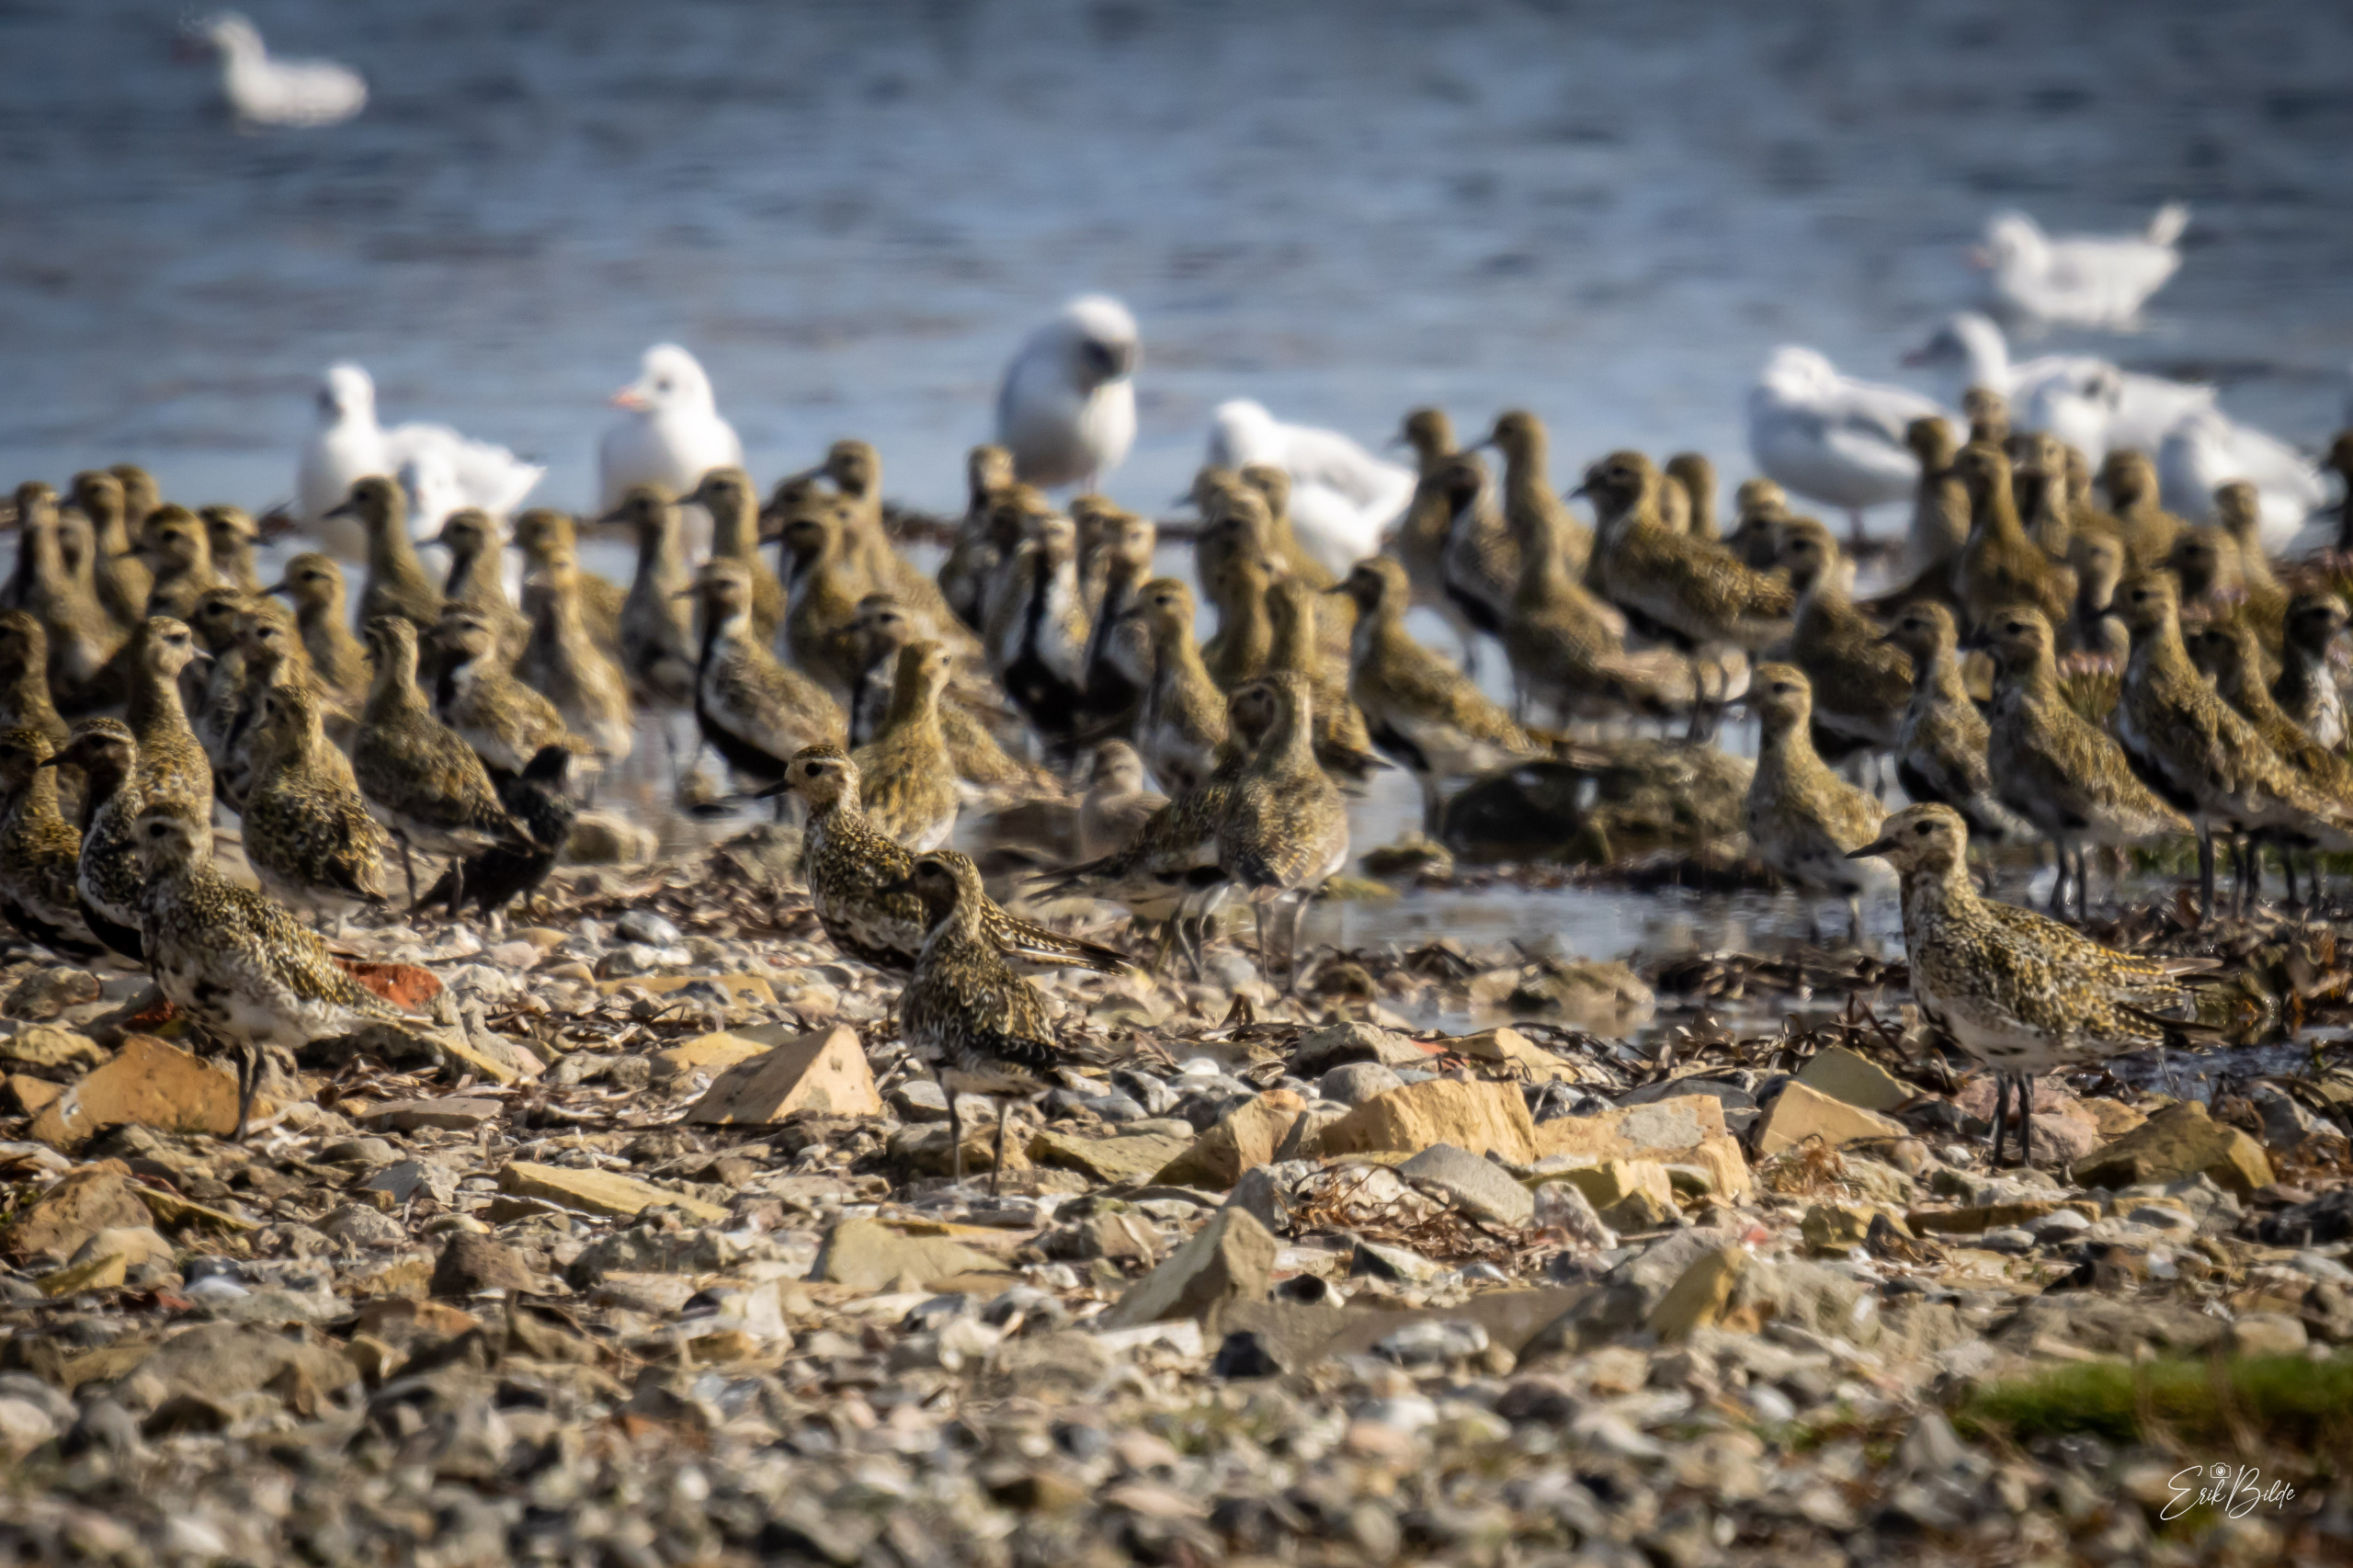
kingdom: Animalia
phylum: Chordata
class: Aves
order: Charadriiformes
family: Charadriidae
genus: Pluvialis
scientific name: Pluvialis apricaria
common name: Hjejle
